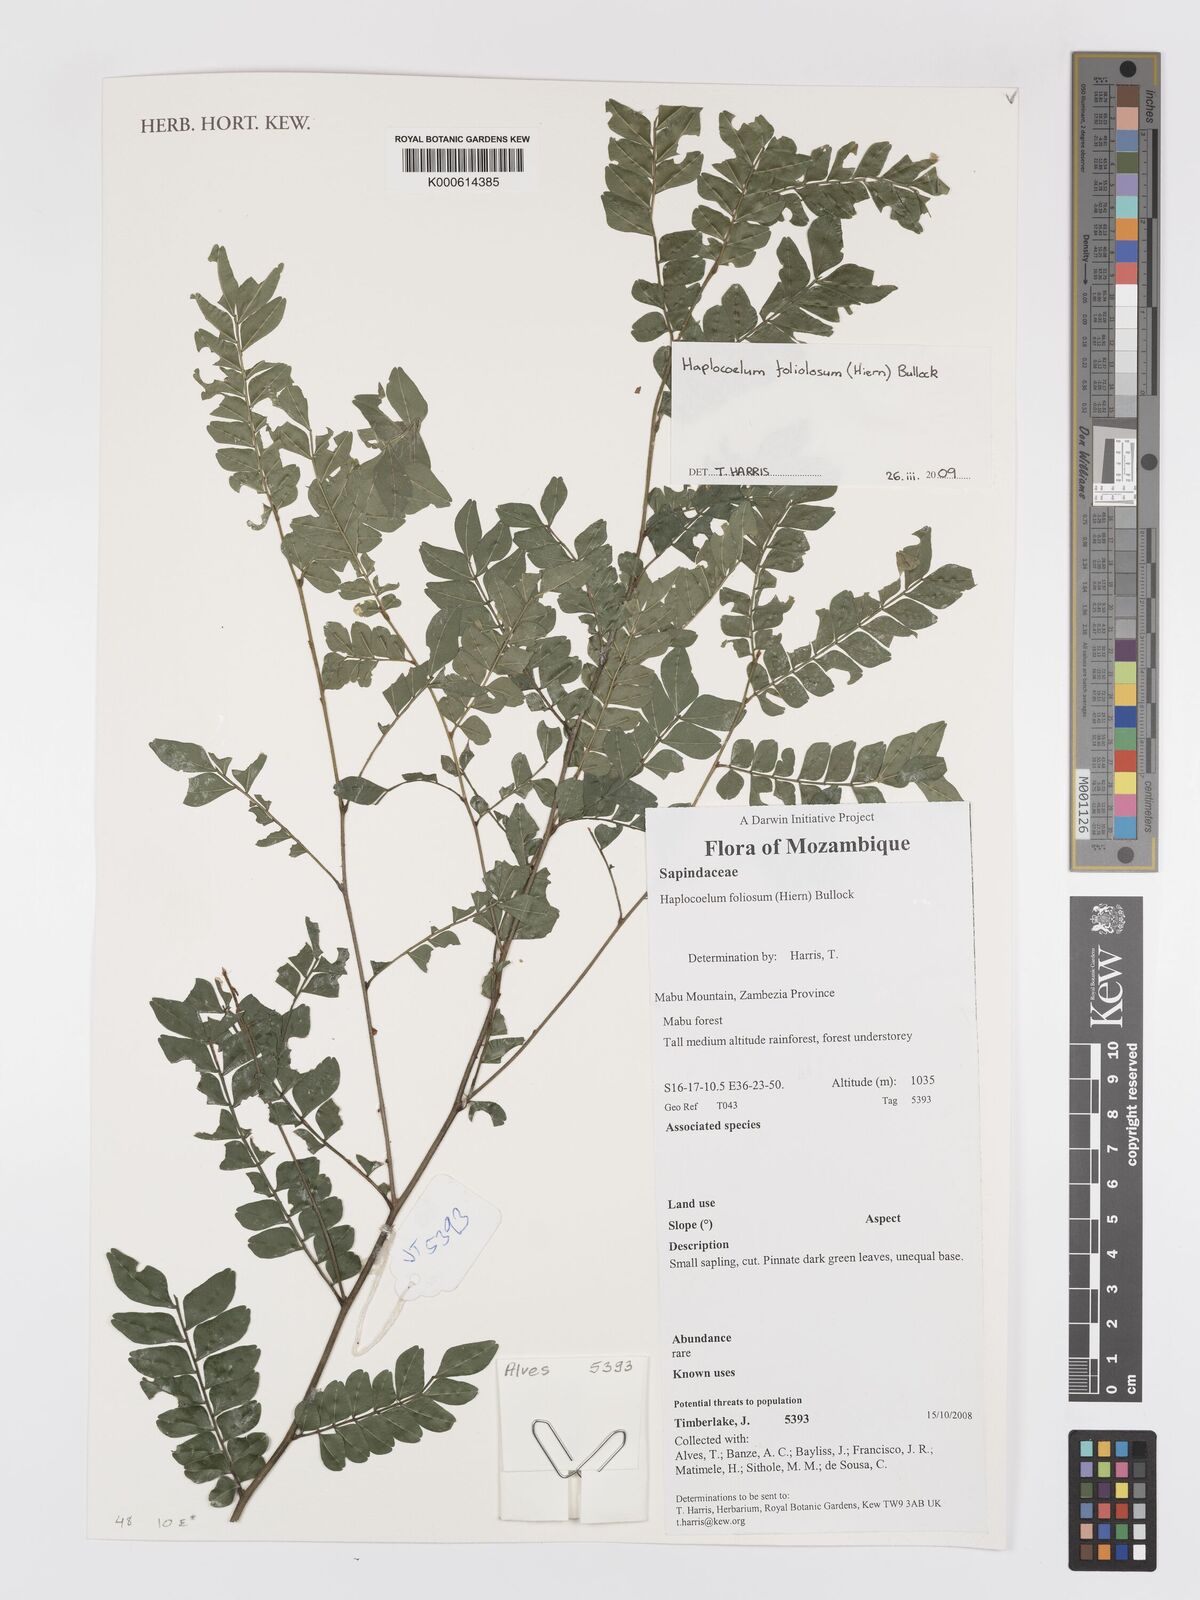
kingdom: Plantae
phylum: Tracheophyta
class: Magnoliopsida
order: Sapindales
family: Sapindaceae
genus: Haplocoelum
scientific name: Haplocoelum
